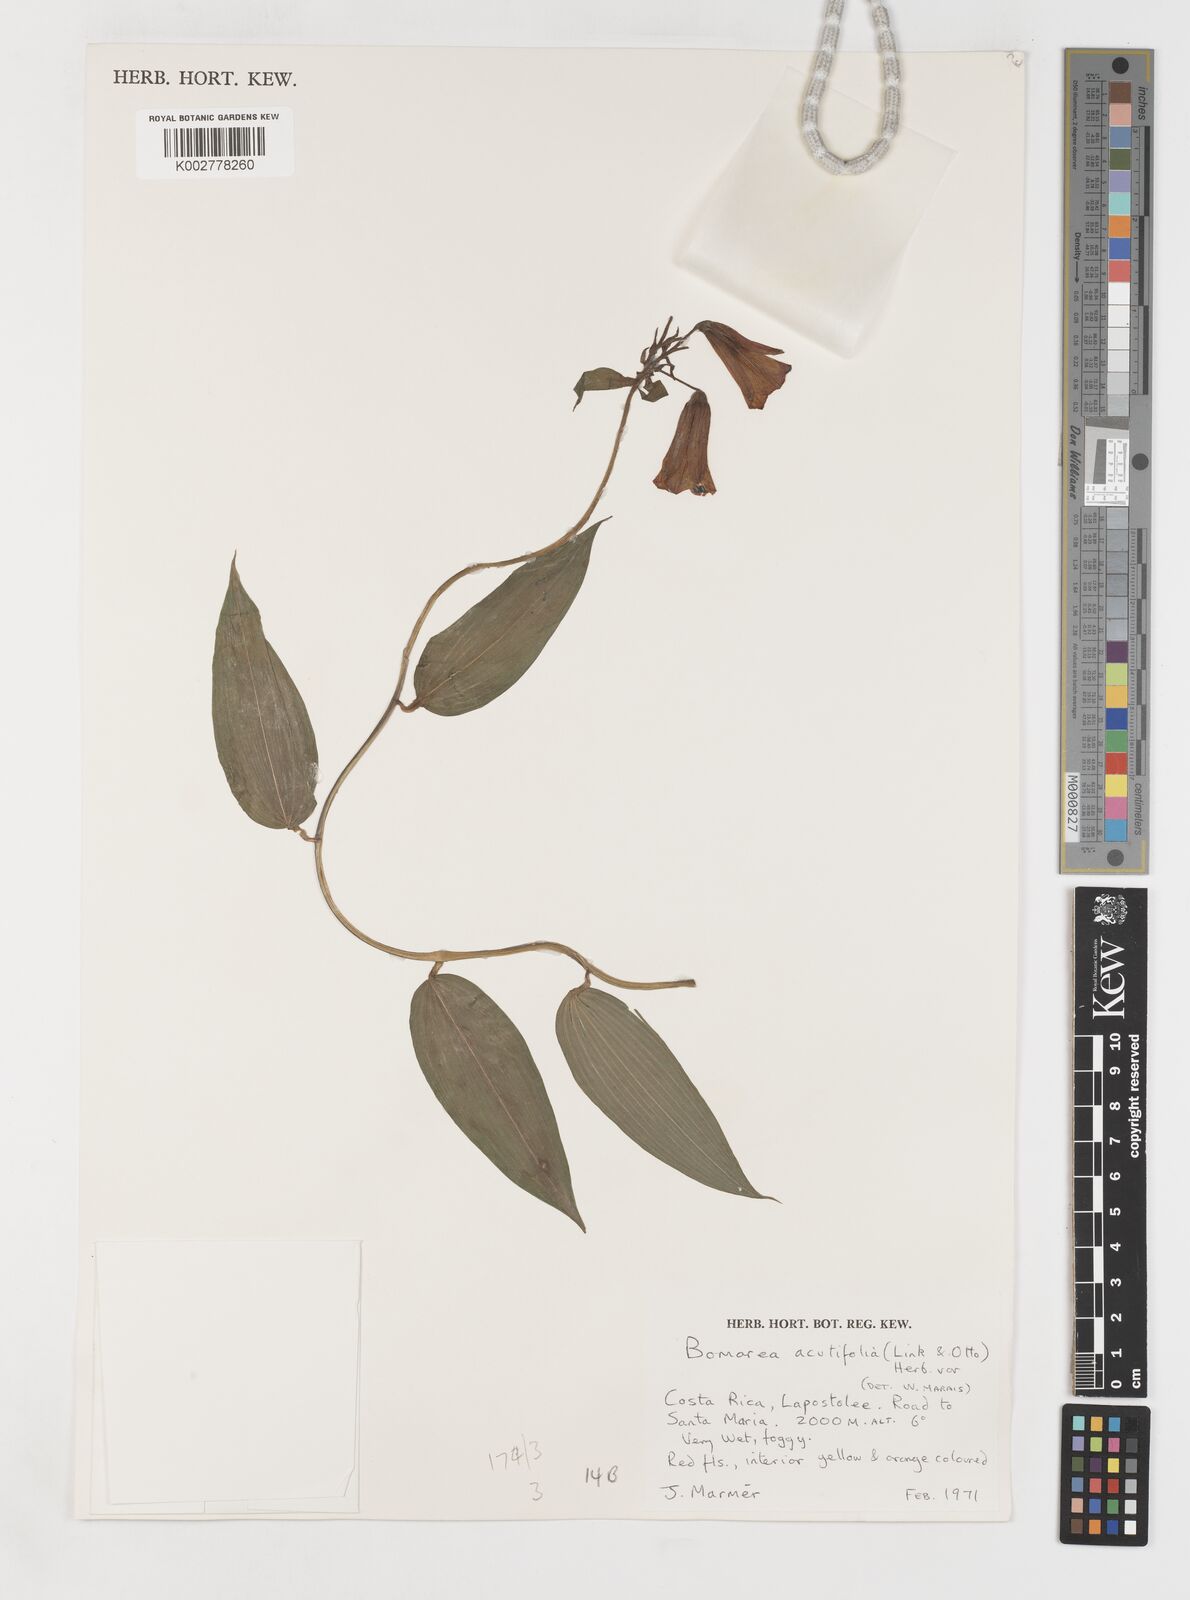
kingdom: Plantae
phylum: Tracheophyta
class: Liliopsida
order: Liliales
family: Alstroemeriaceae
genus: Bomarea
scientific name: Bomarea acutifolia
